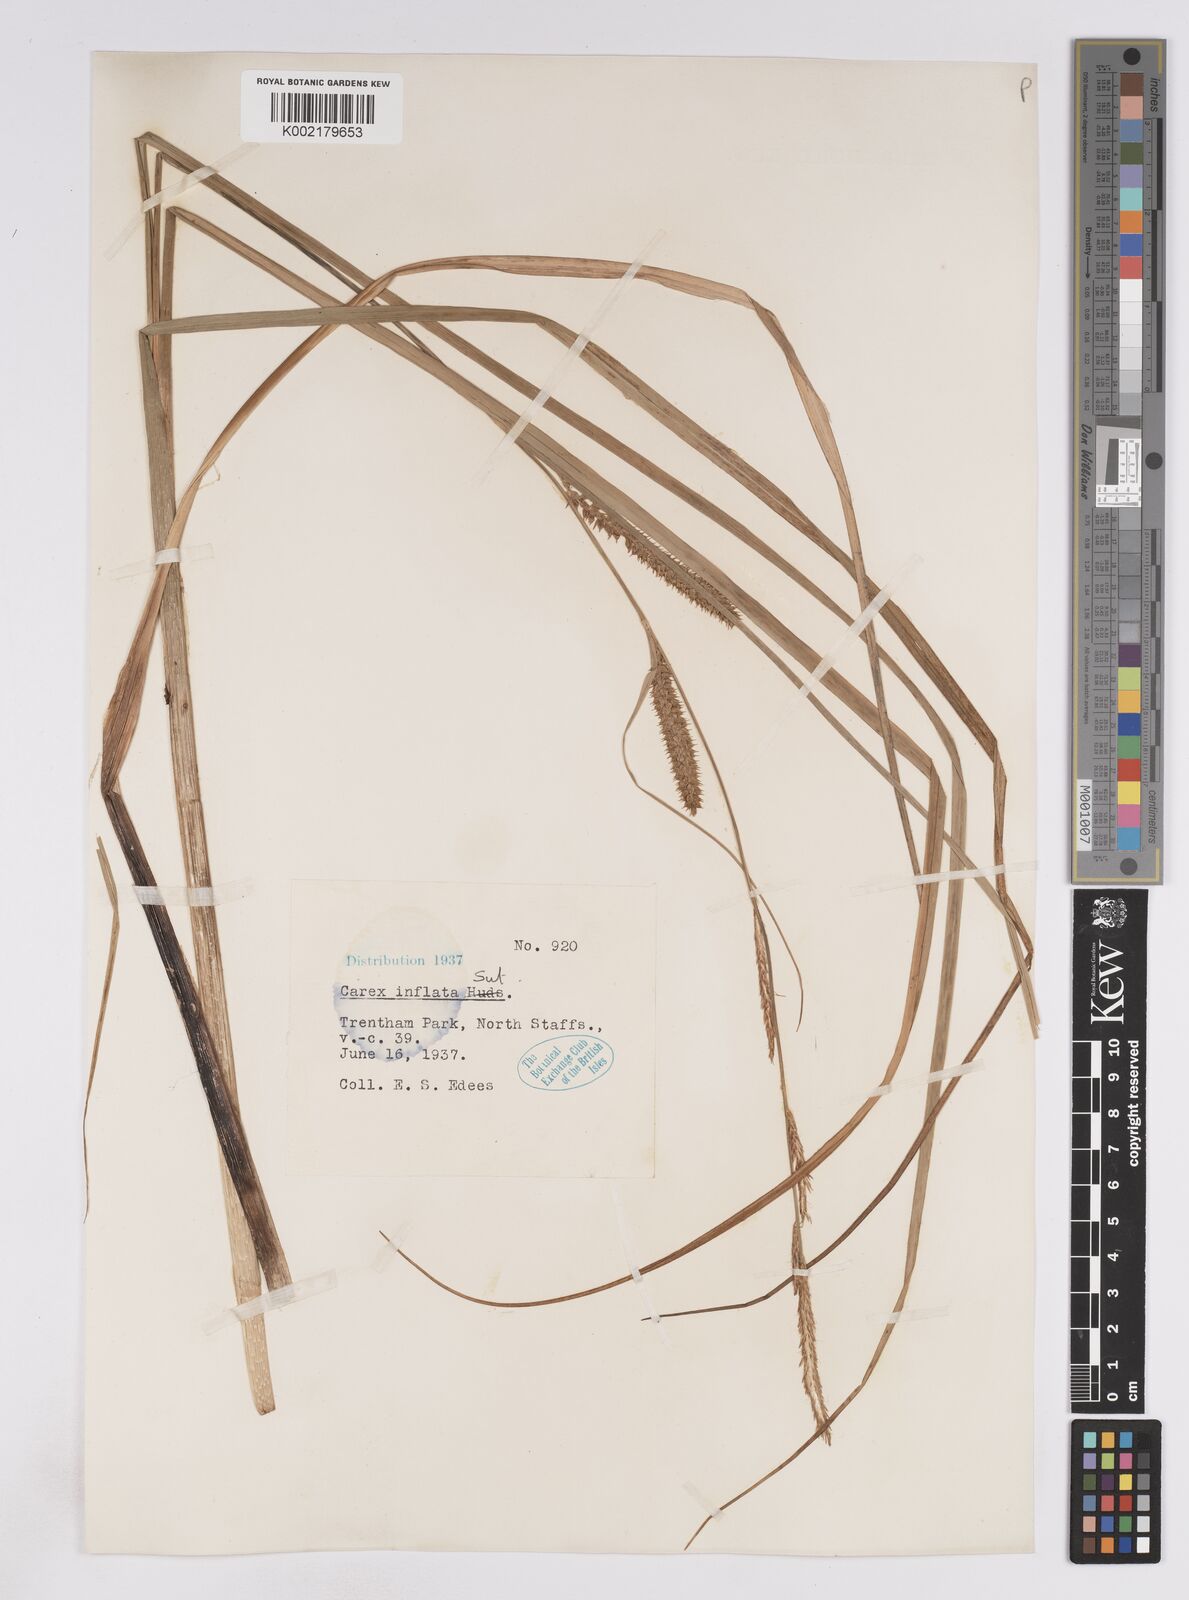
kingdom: Plantae
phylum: Tracheophyta
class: Liliopsida
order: Poales
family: Cyperaceae
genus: Carex
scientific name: Carex rostrata
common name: Bottle sedge
